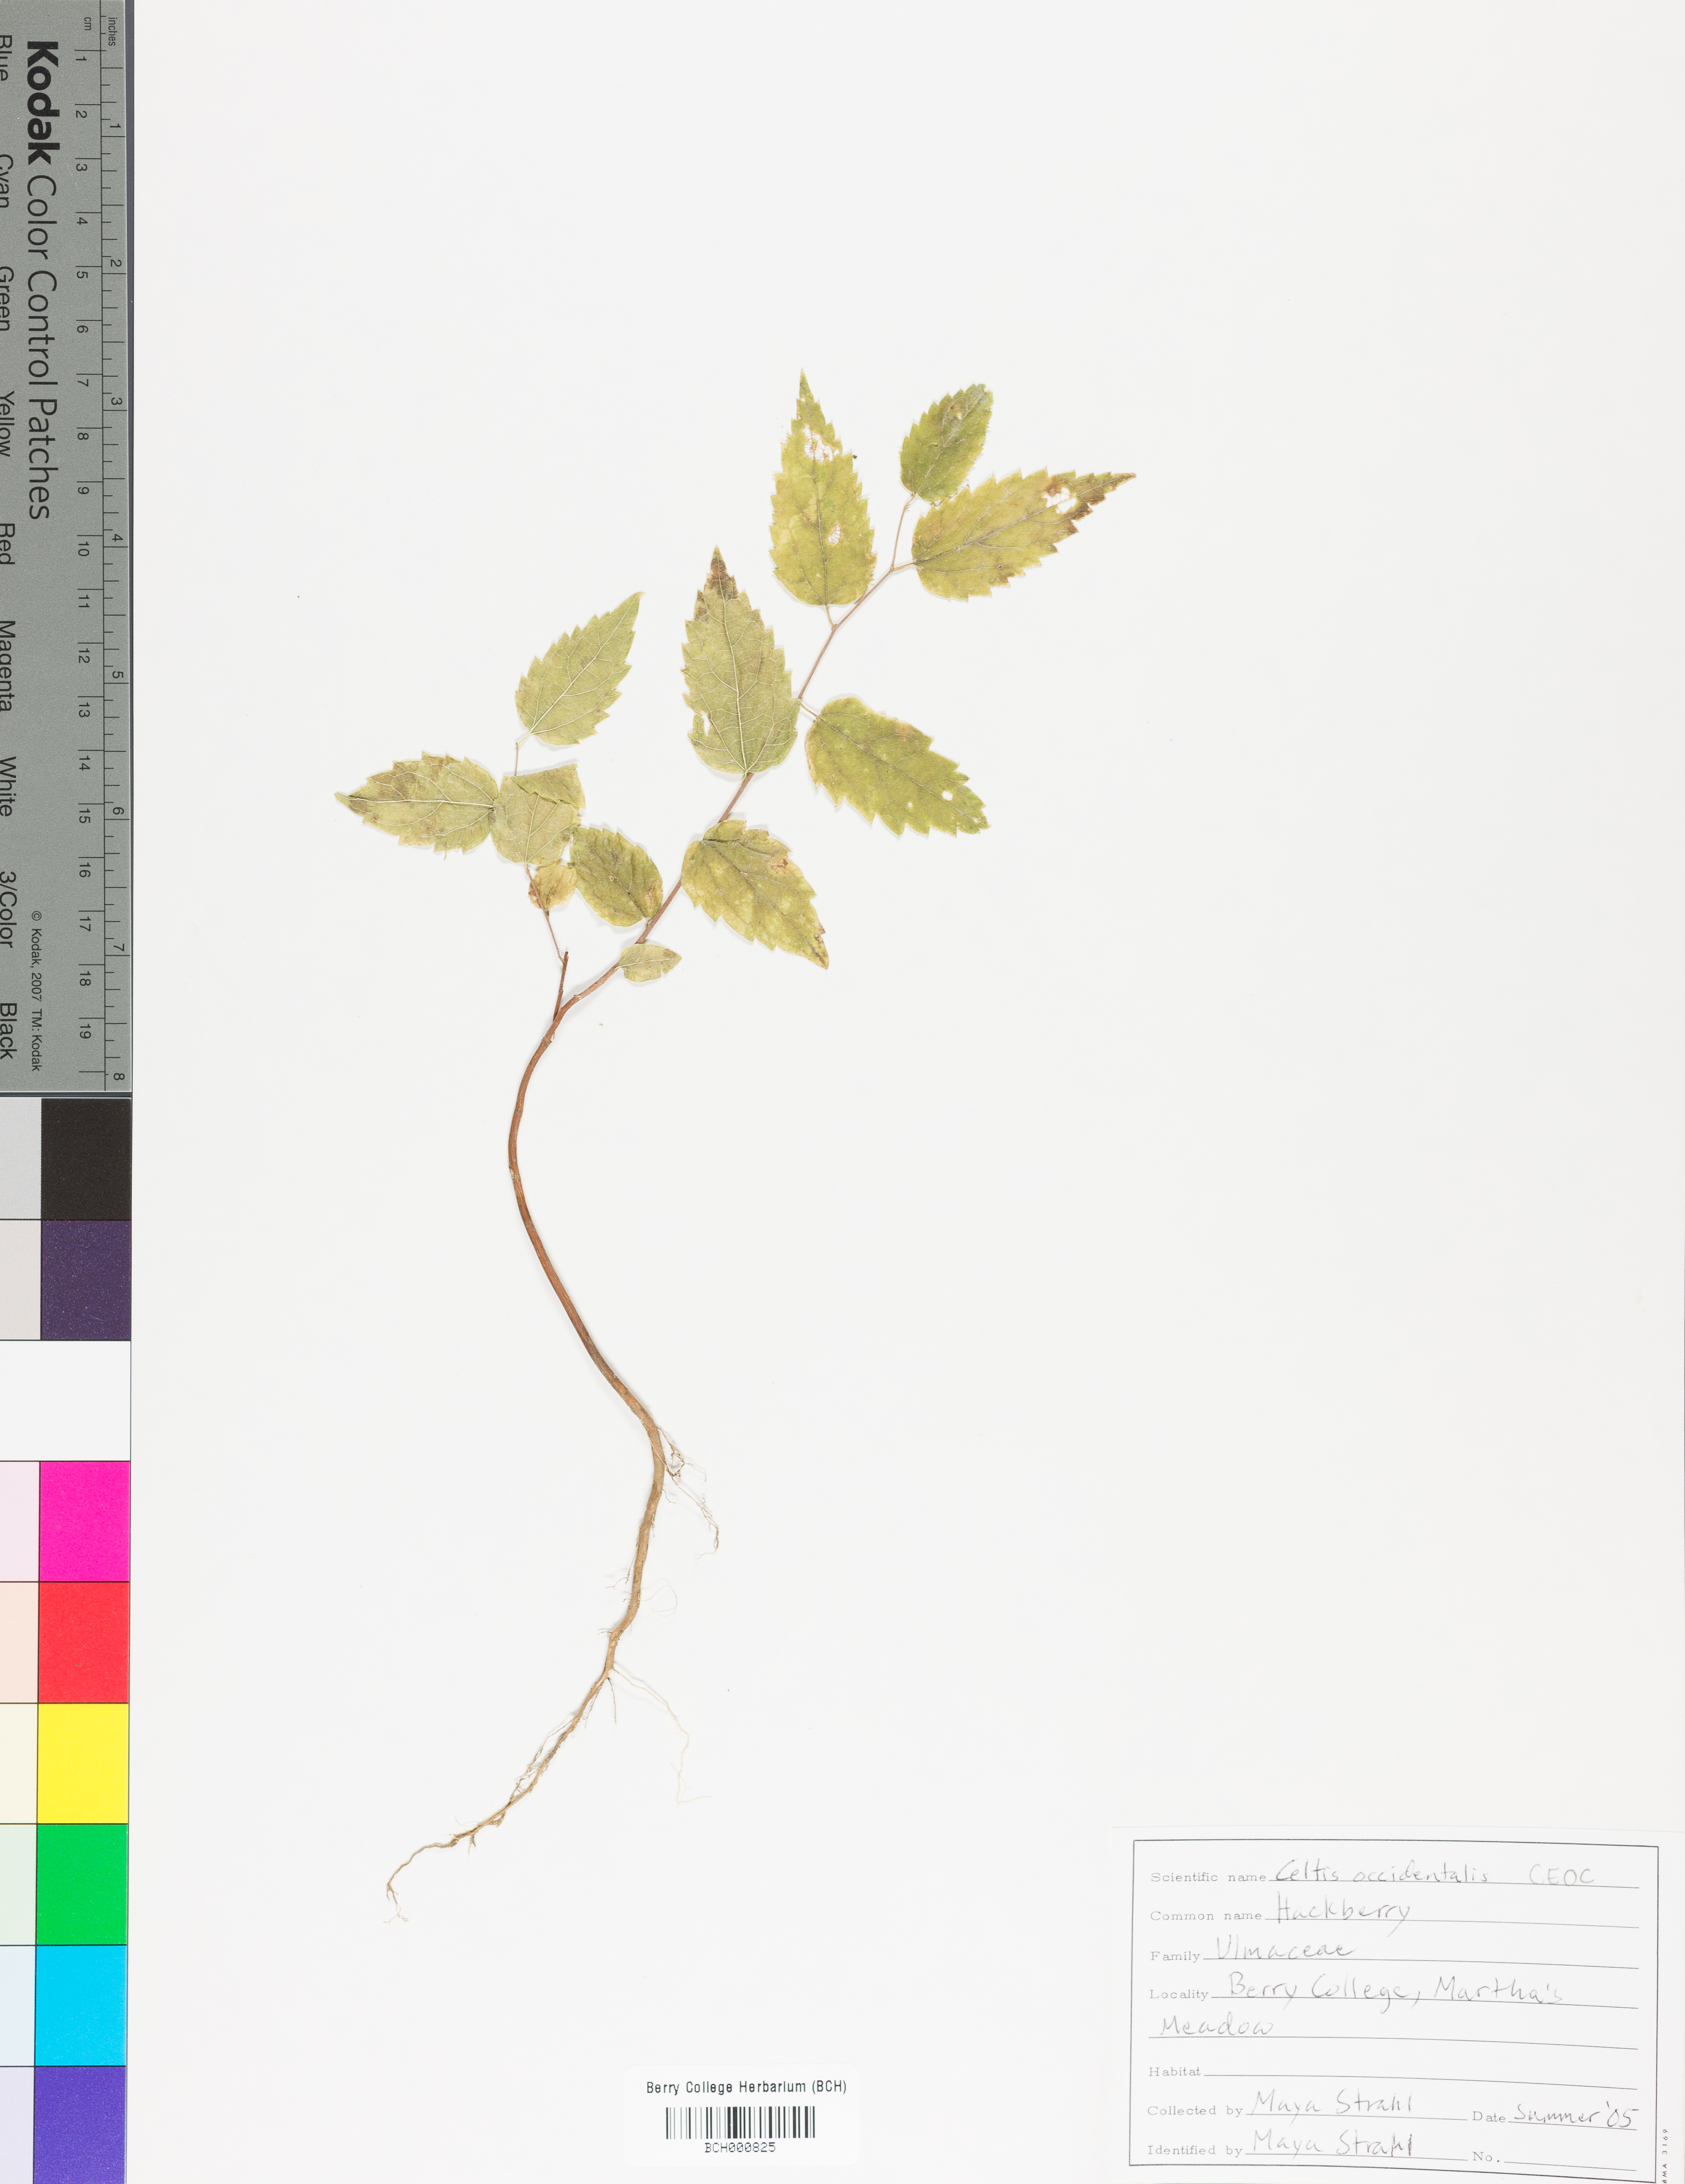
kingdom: Plantae
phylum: Tracheophyta
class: Magnoliopsida
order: Rosales
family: Cannabaceae
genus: Celtis
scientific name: Celtis occidentalis
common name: Common hackberry
